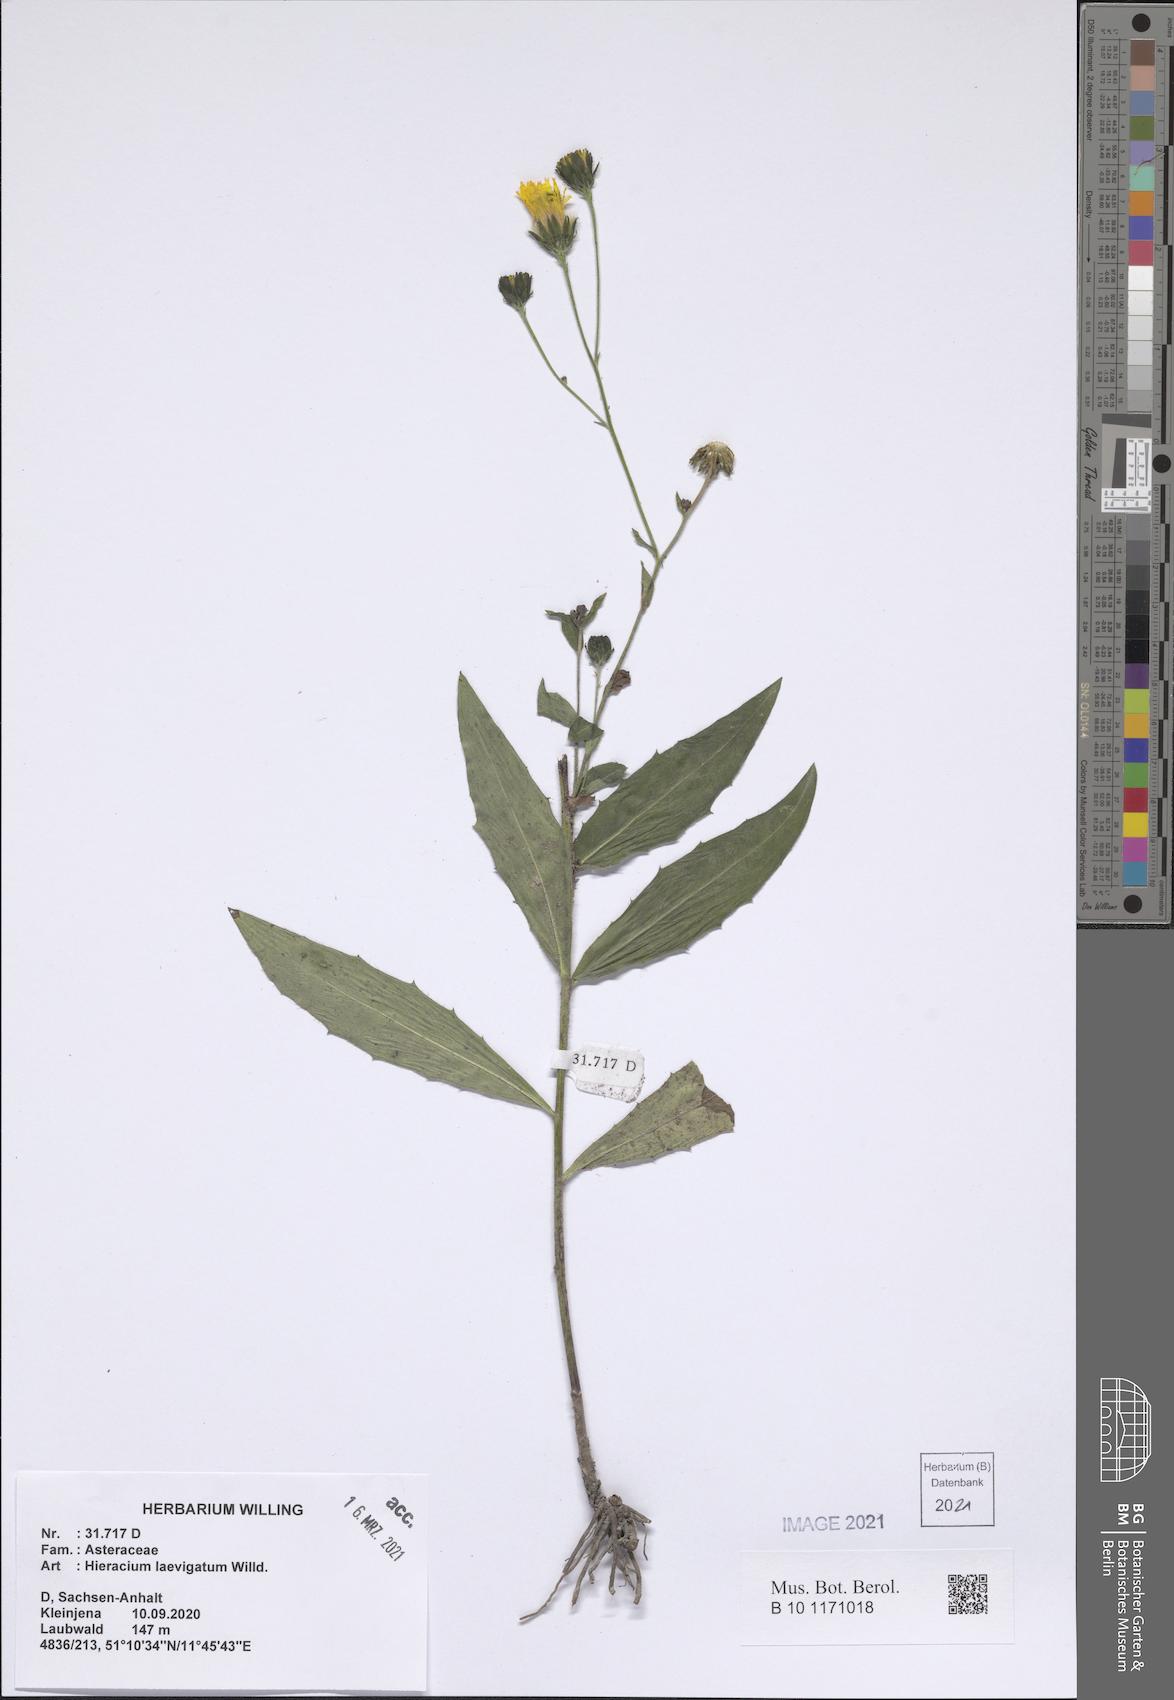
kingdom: Plantae
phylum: Tracheophyta
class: Magnoliopsida
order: Asterales
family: Asteraceae
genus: Hieracium
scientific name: Hieracium laevigatum
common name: Smooth hawkweed
